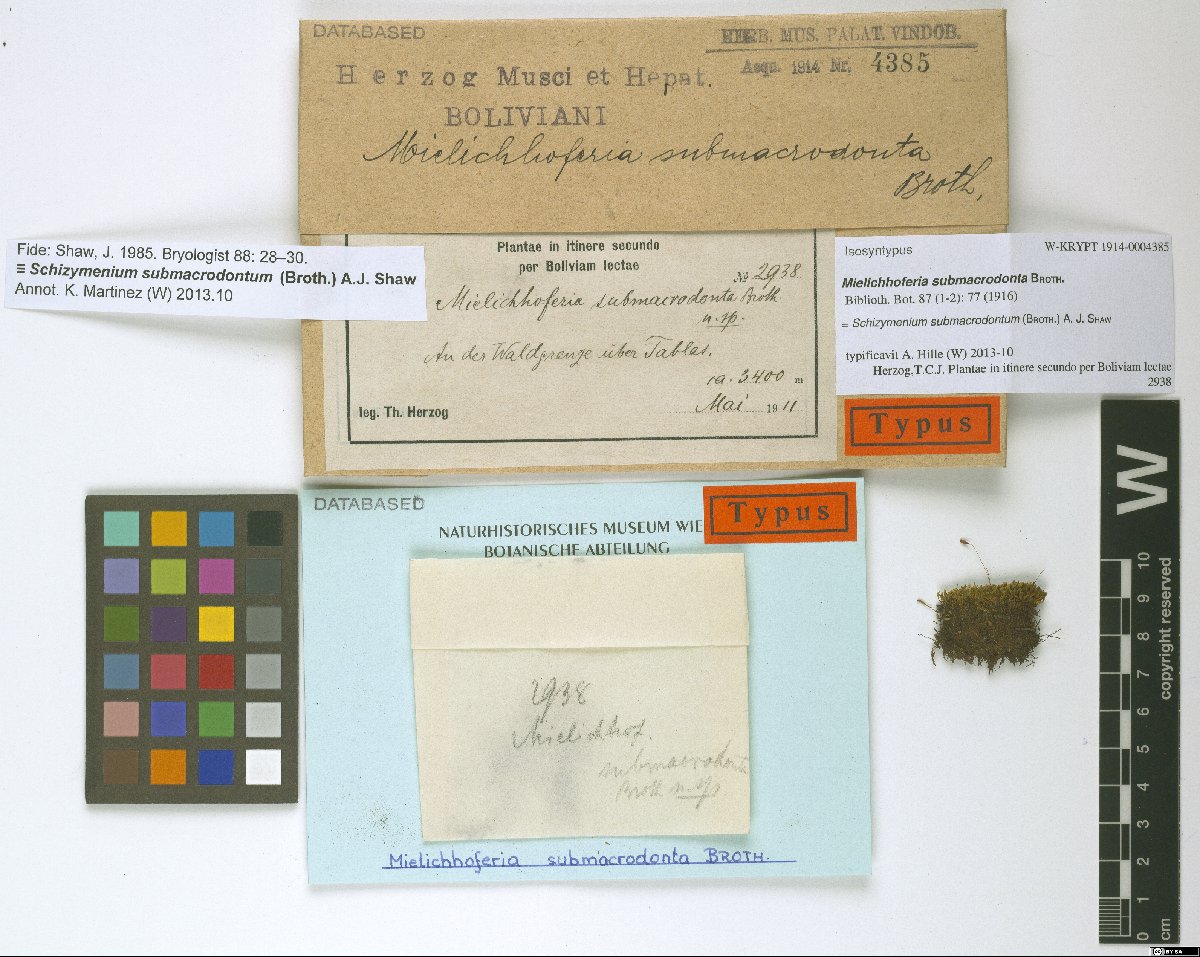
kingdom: Plantae
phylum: Bryophyta
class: Bryopsida
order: Bryales
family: Mniaceae
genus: Schizymenium
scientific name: Schizymenium submacrodontum
